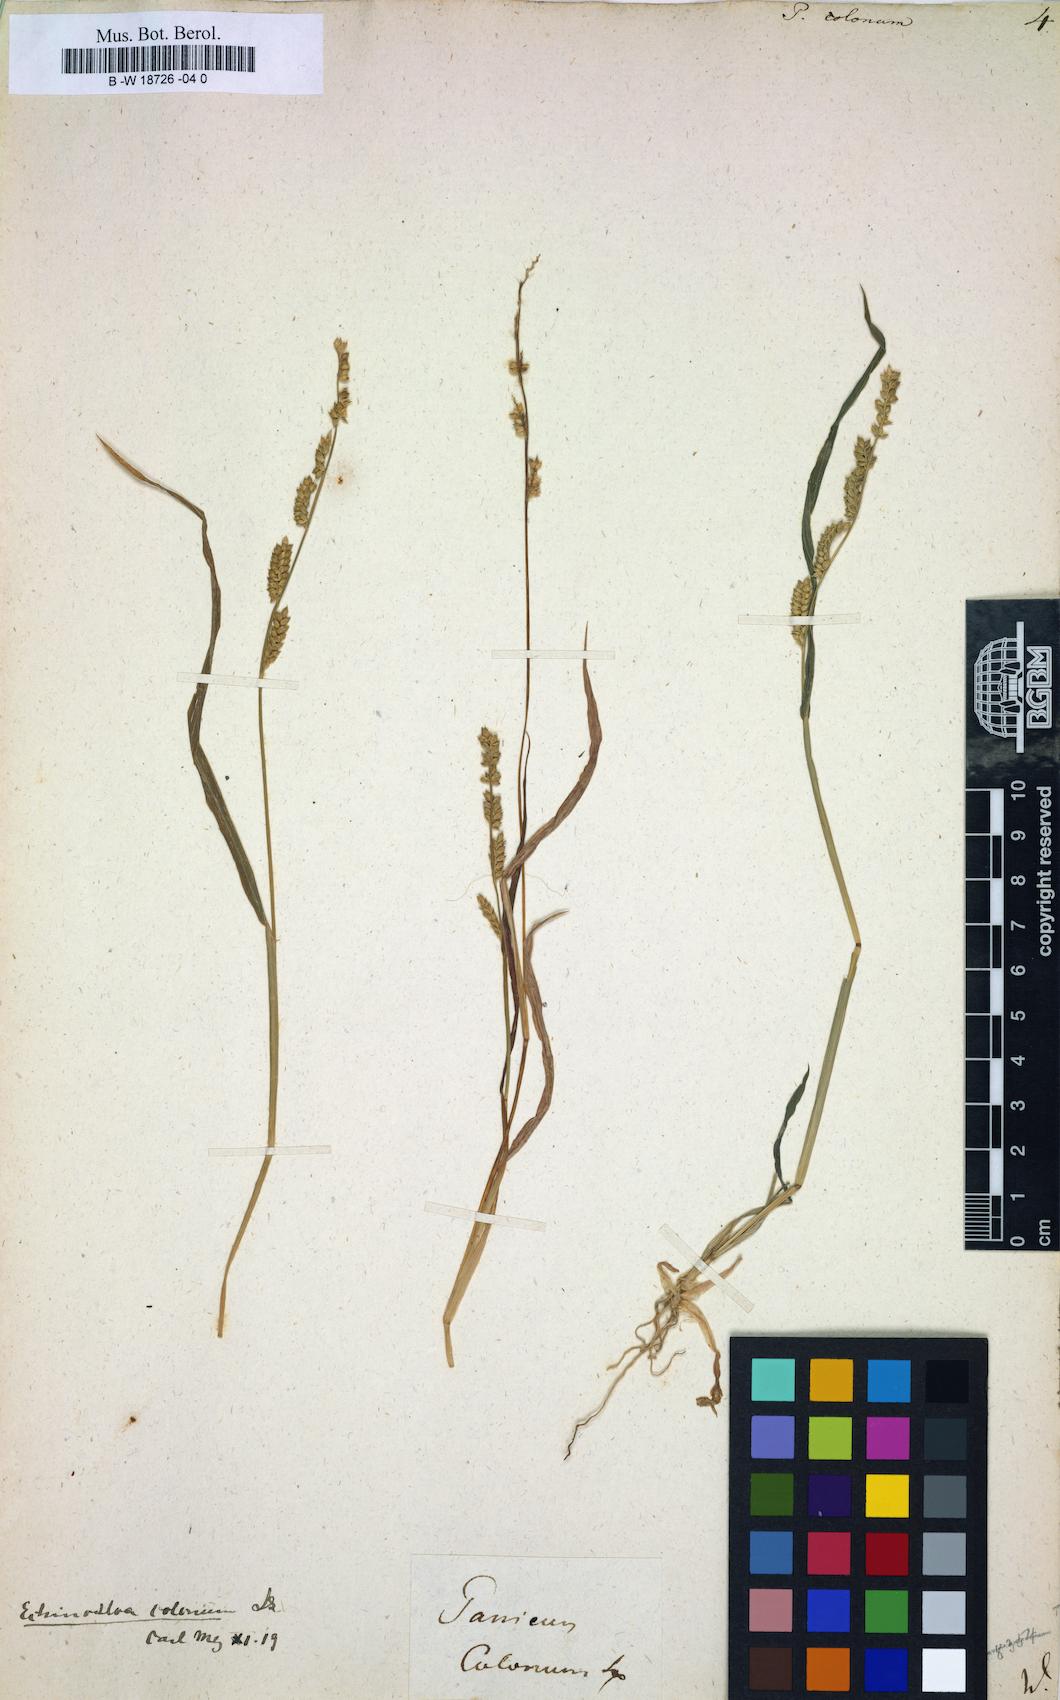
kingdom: Plantae
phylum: Tracheophyta
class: Liliopsida
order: Poales
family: Poaceae
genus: Echinochloa
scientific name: Echinochloa colonum
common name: Jungle rice
